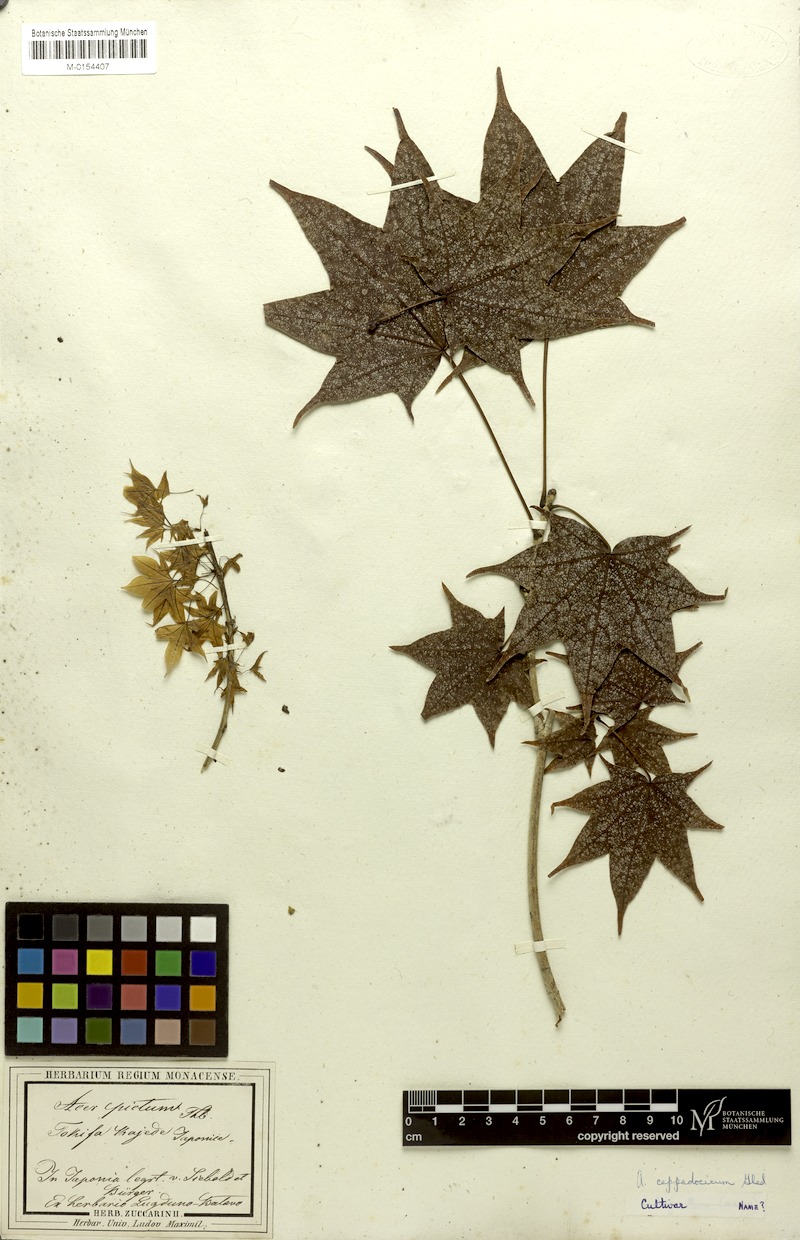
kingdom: Plantae
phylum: Tracheophyta
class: Magnoliopsida
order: Sapindales
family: Sapindaceae
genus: Acer
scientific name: Acer cappadocicum
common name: Cappadocian maple
